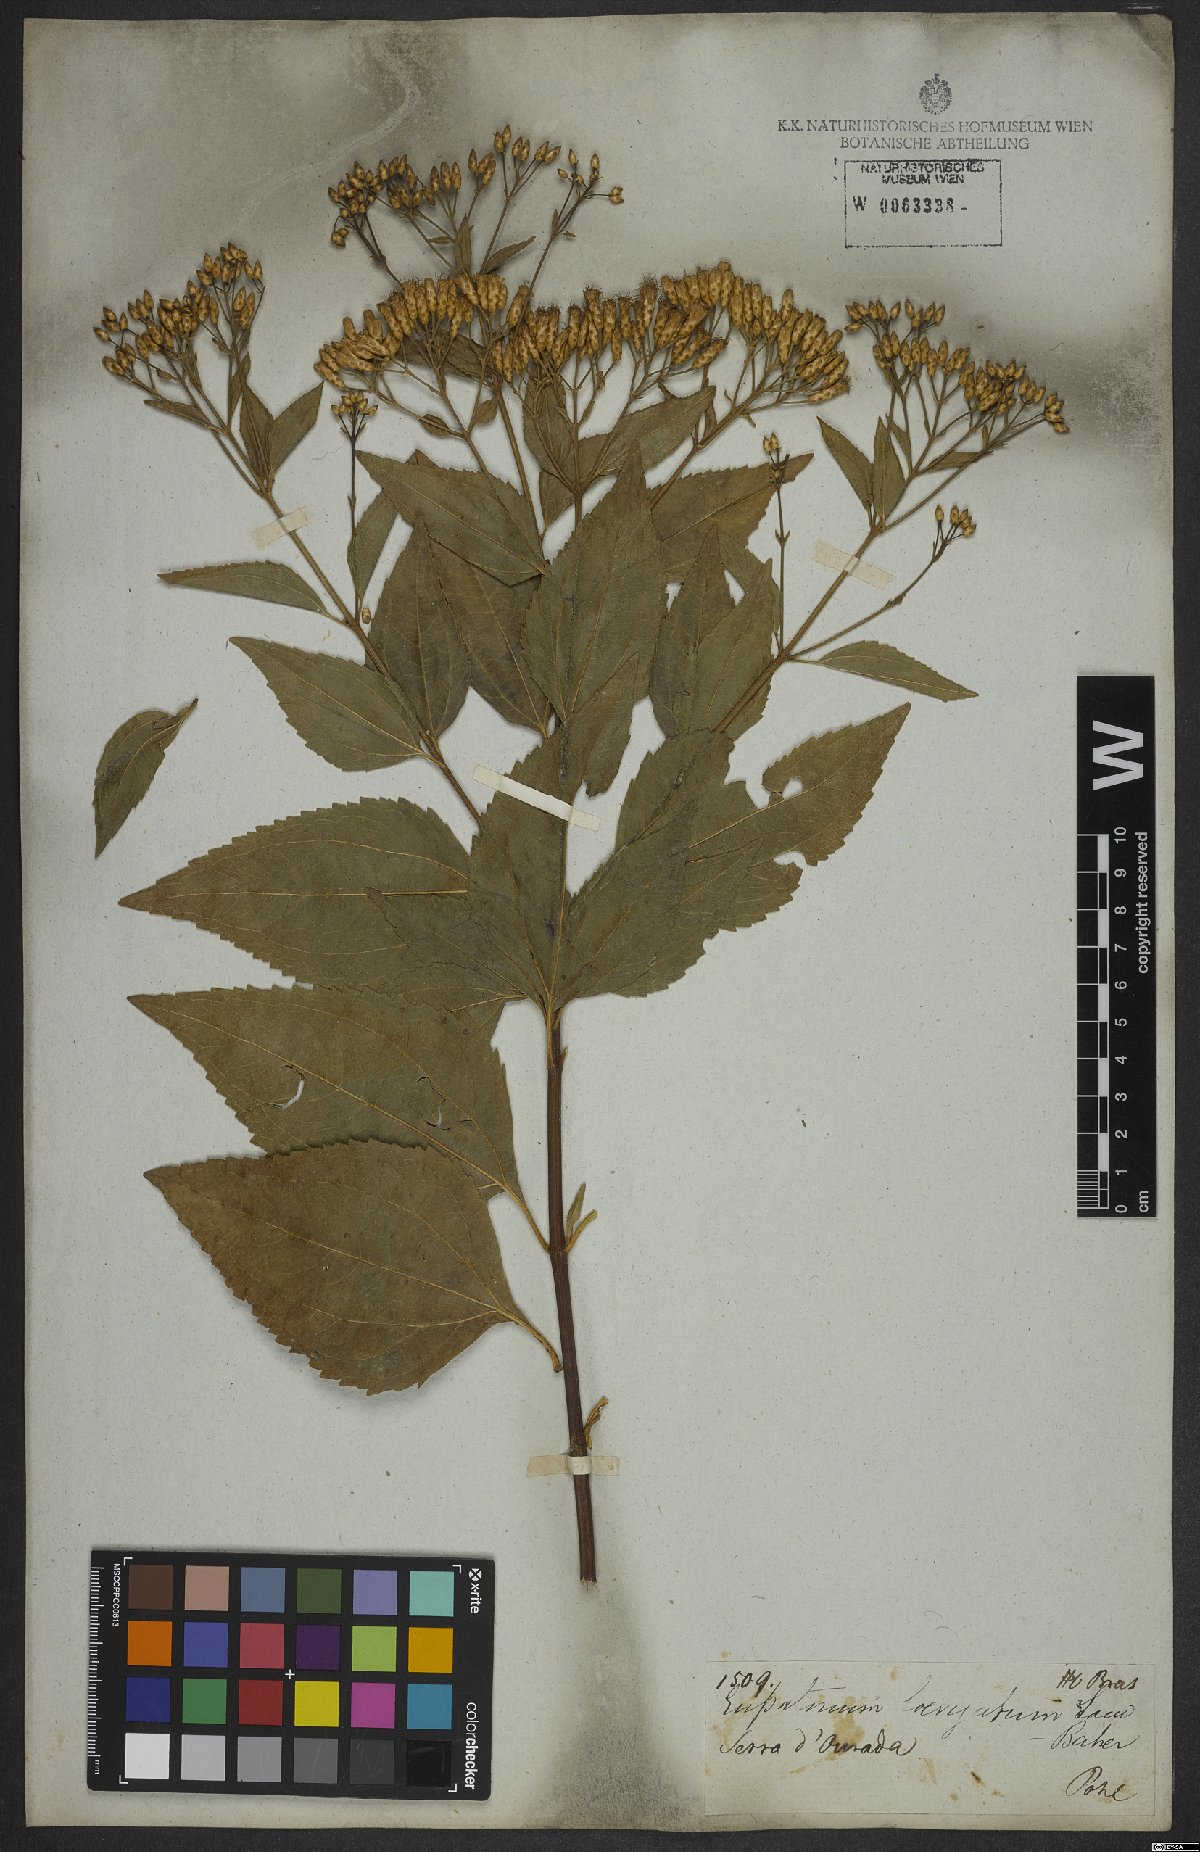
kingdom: Plantae
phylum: Tracheophyta
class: Magnoliopsida
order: Asterales
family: Asteraceae
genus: Eupatorium
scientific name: Eupatorium laevigatum
